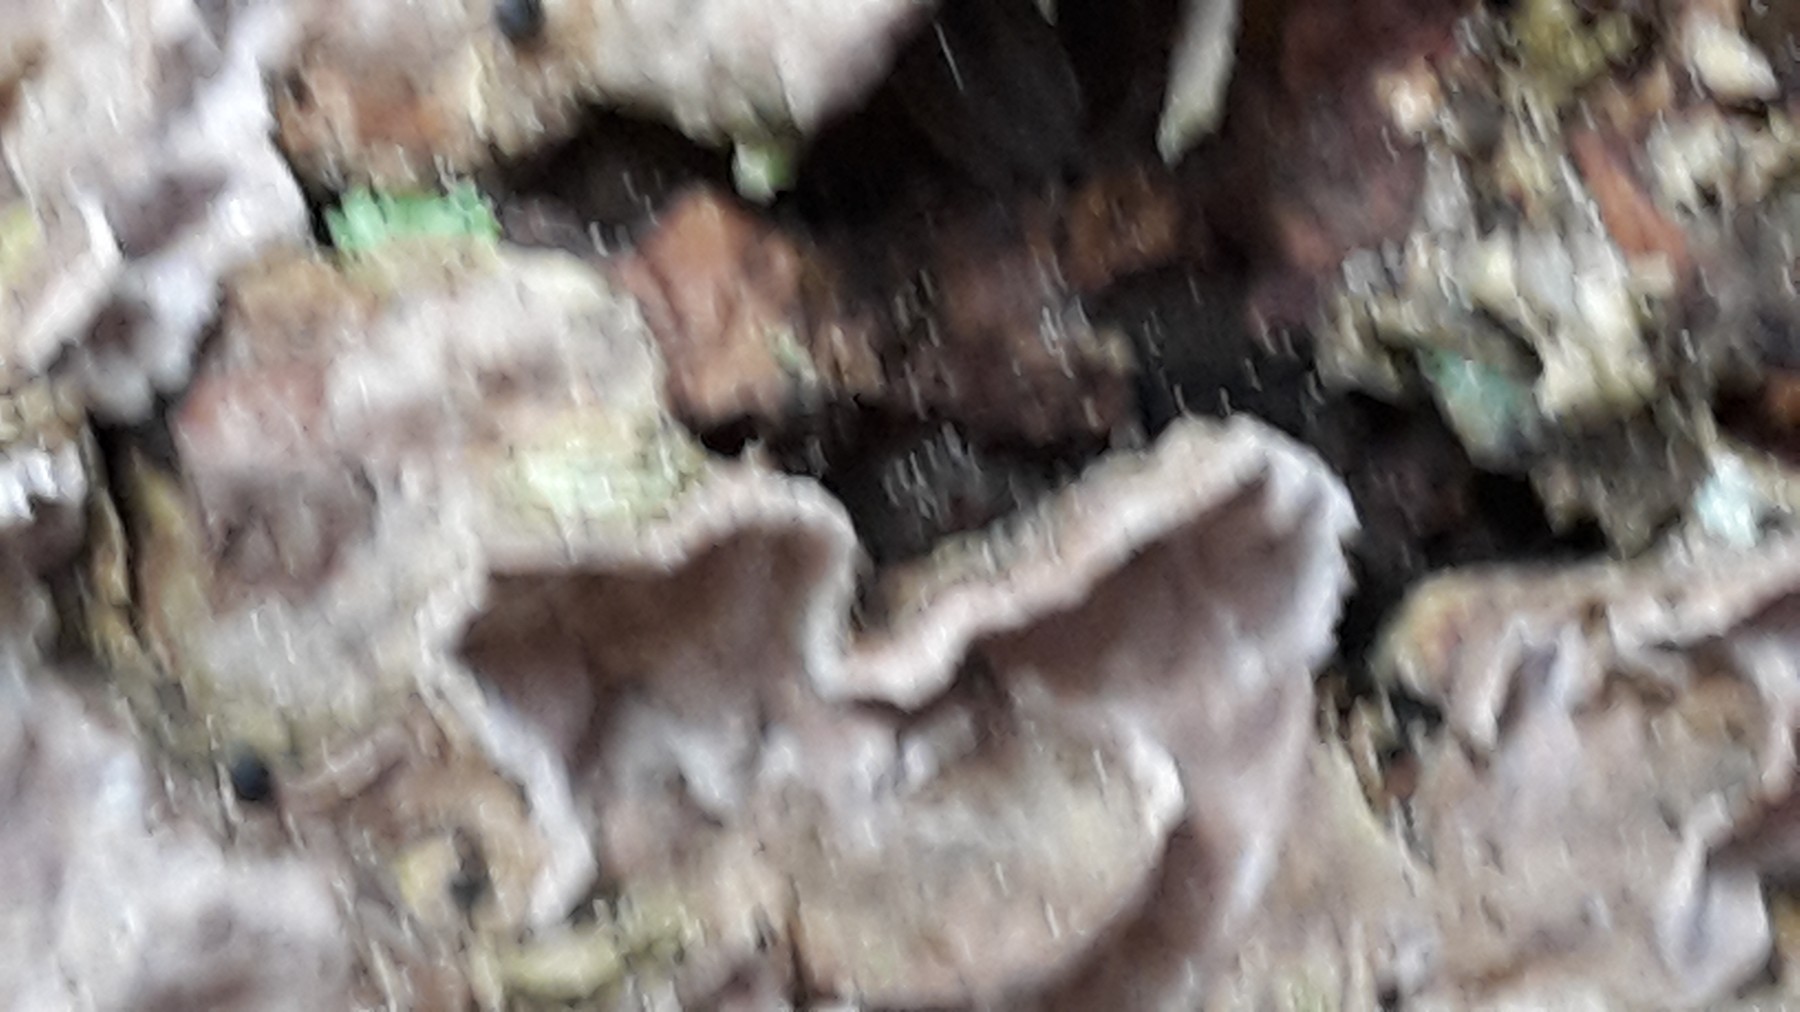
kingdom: Fungi
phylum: Basidiomycota
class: Agaricomycetes
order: Russulales
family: Stereaceae
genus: Stereum
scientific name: Stereum sanguinolentum
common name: blødende lædersvamp
